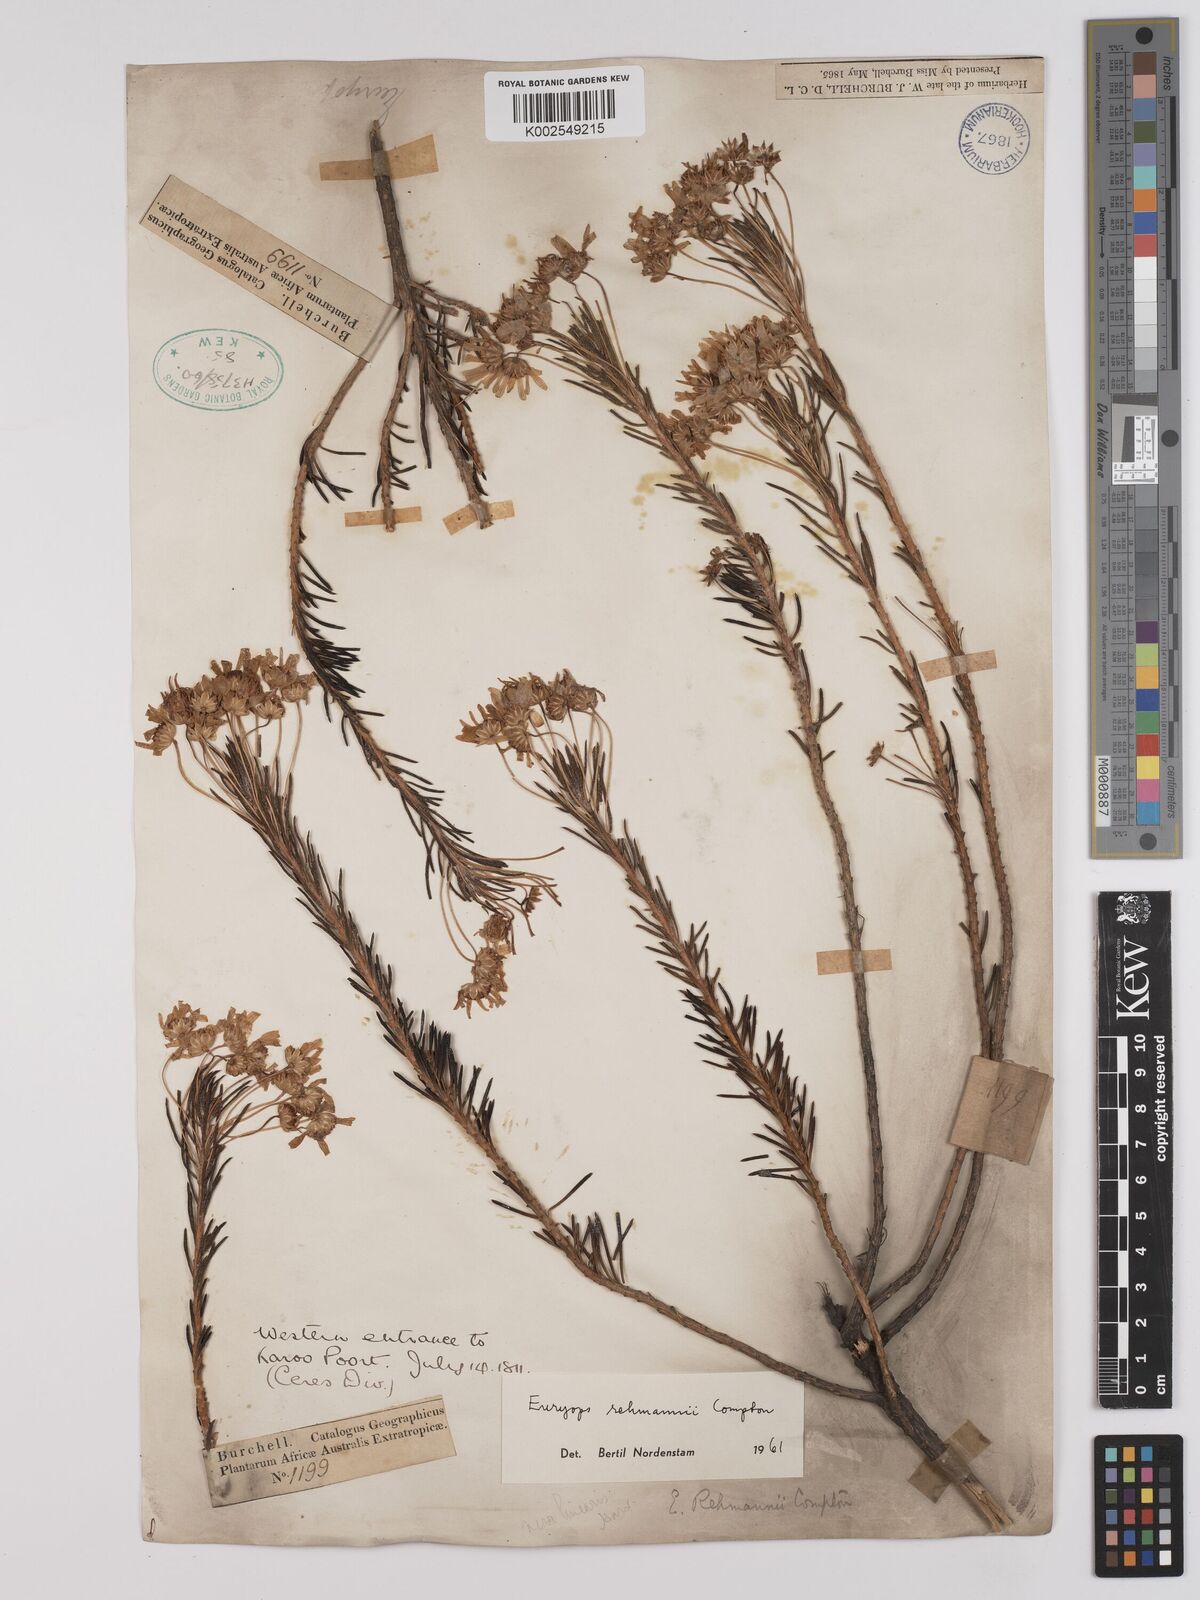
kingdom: Plantae
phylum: Tracheophyta
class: Magnoliopsida
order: Asterales
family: Asteraceae
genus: Euryops
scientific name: Euryops rehmannii
